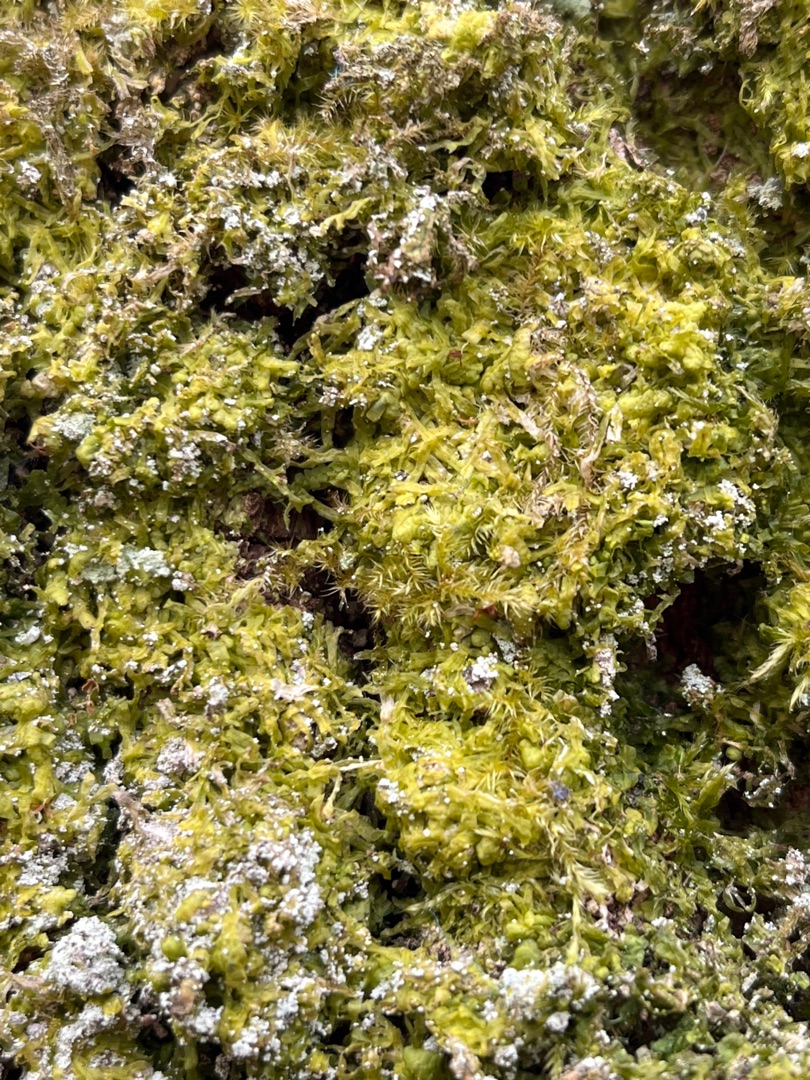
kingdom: Plantae
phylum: Marchantiophyta
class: Jungermanniopsida
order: Metzgeriales
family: Metzgeriaceae
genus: Metzgeria
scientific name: Metzgeria furcata
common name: Almindelig gaffelløv
